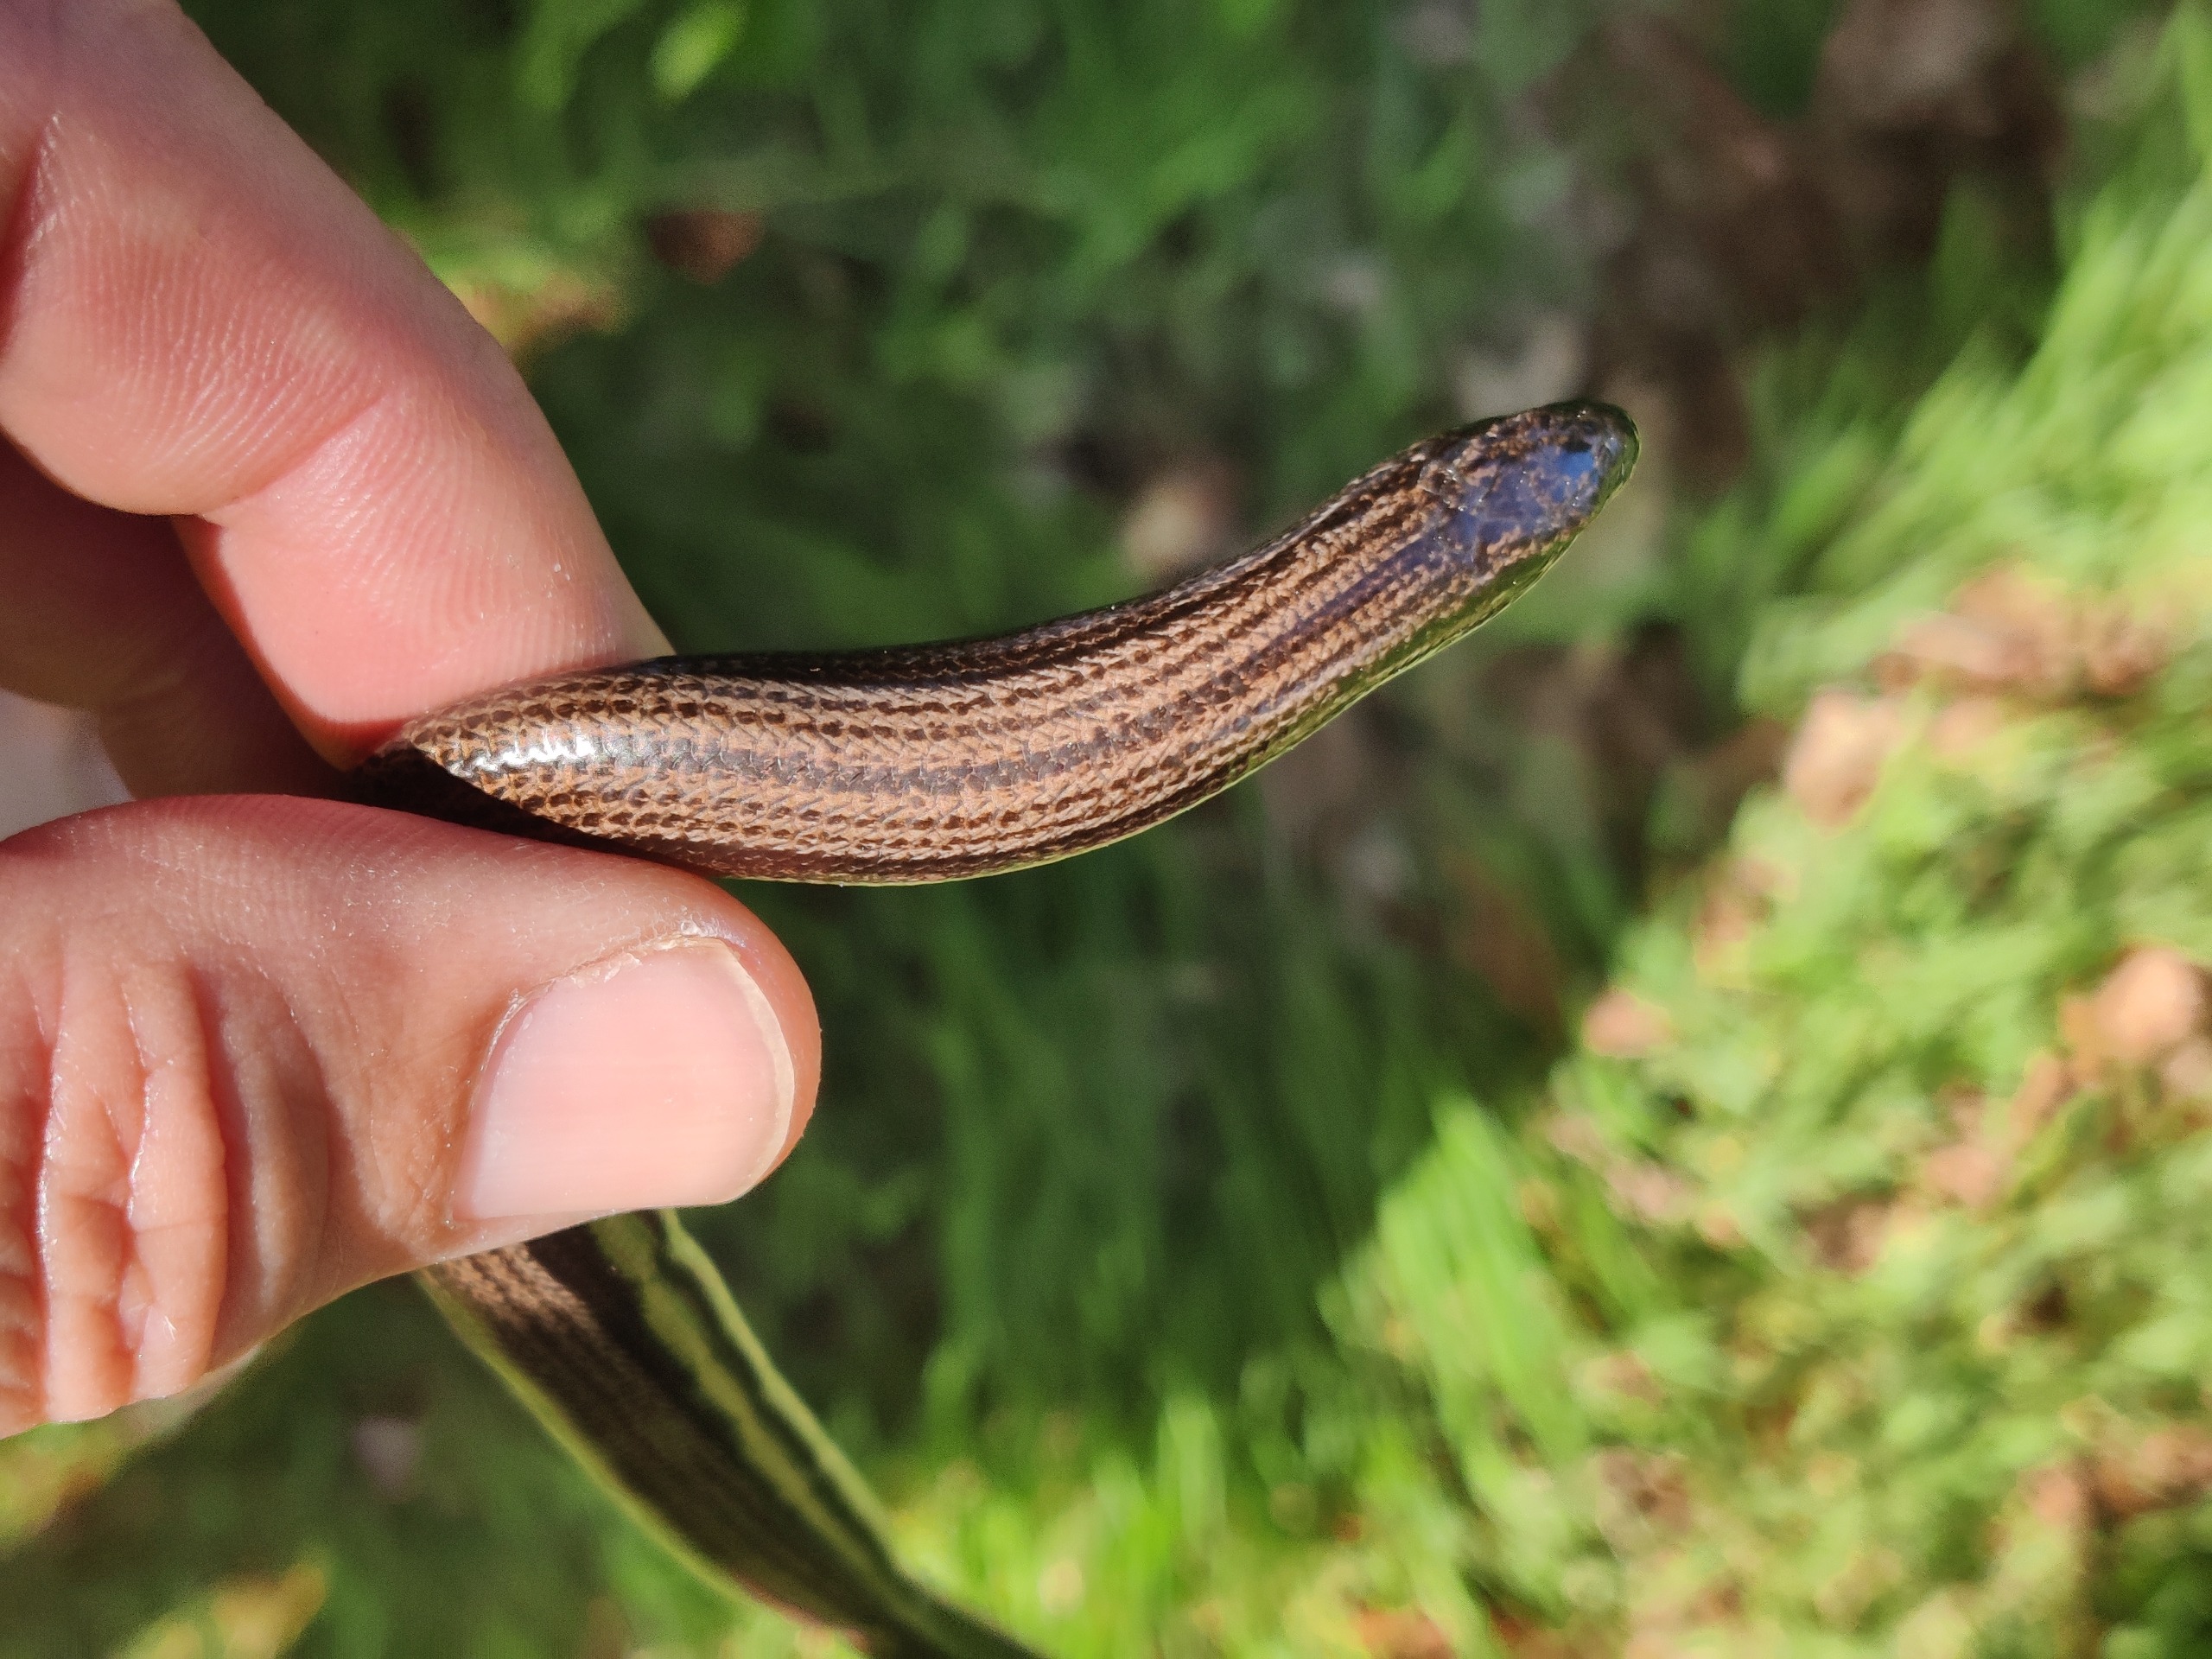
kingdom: Animalia
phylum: Chordata
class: Squamata
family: Anguidae
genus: Anguis
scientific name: Anguis fragilis
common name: Stålorm
